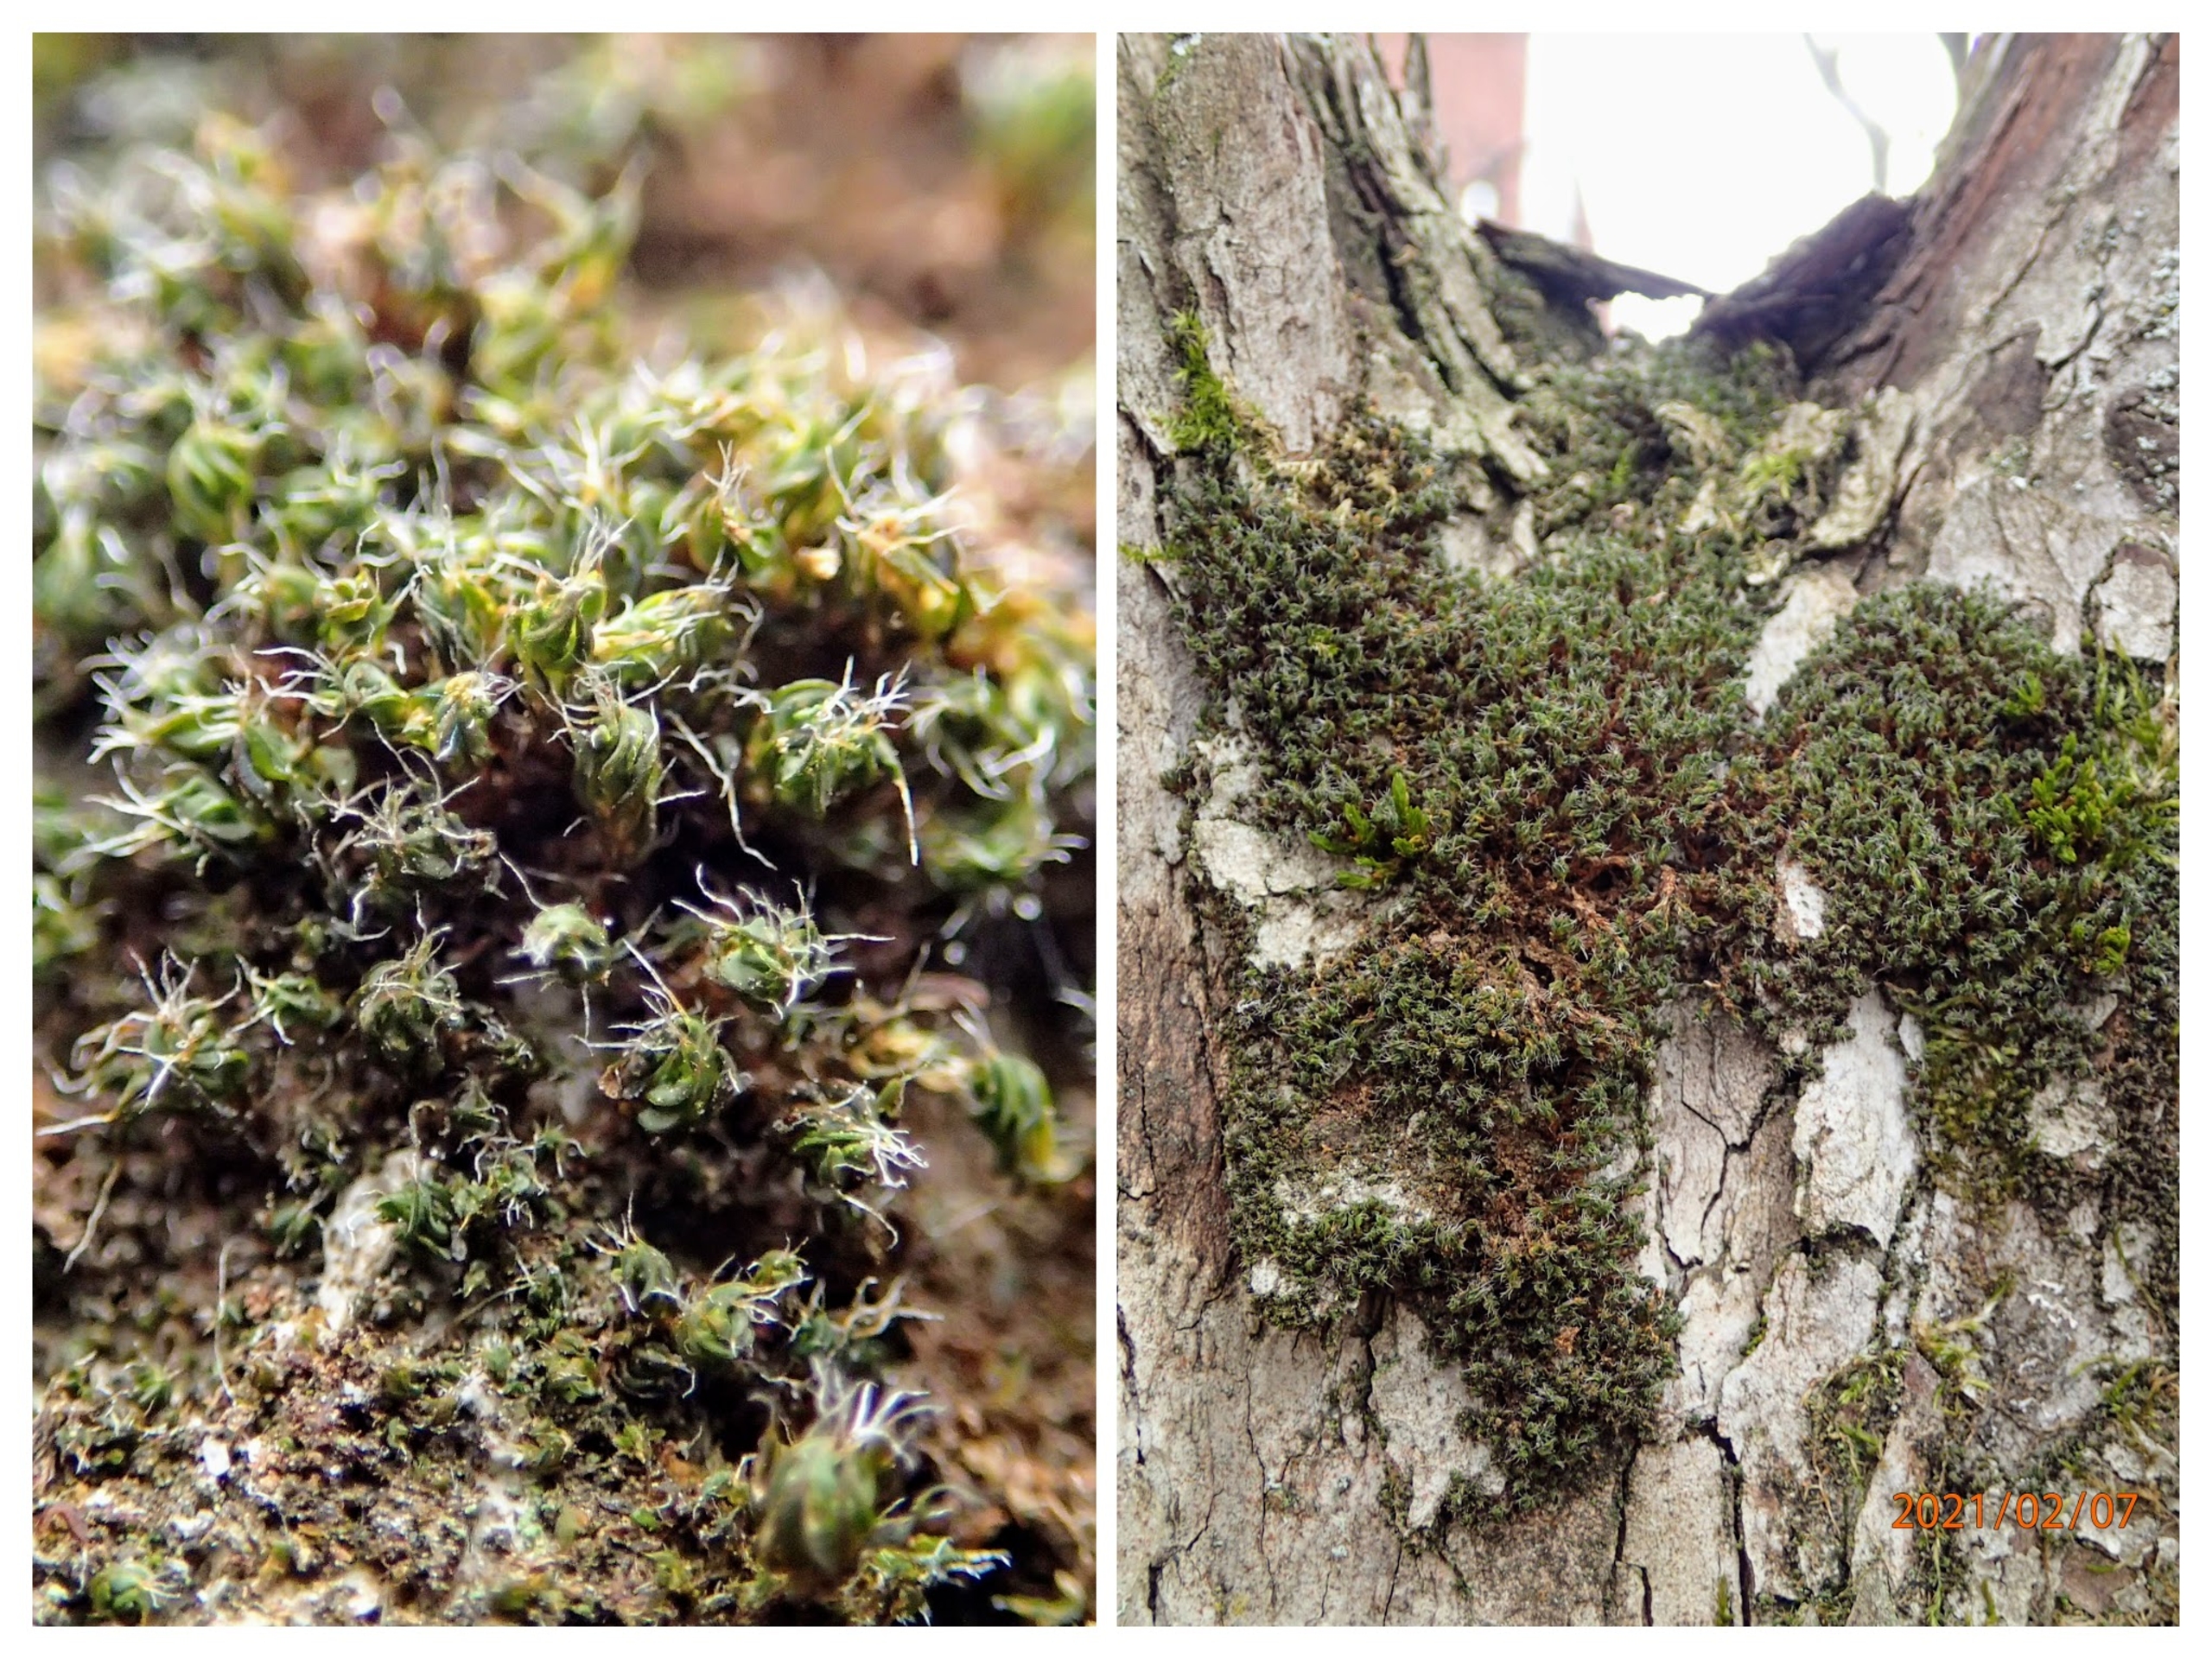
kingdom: Plantae
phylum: Bryophyta
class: Bryopsida
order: Pottiales
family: Pottiaceae
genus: Syntrichia
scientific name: Syntrichia virescens
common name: Grøn hårstjerne
